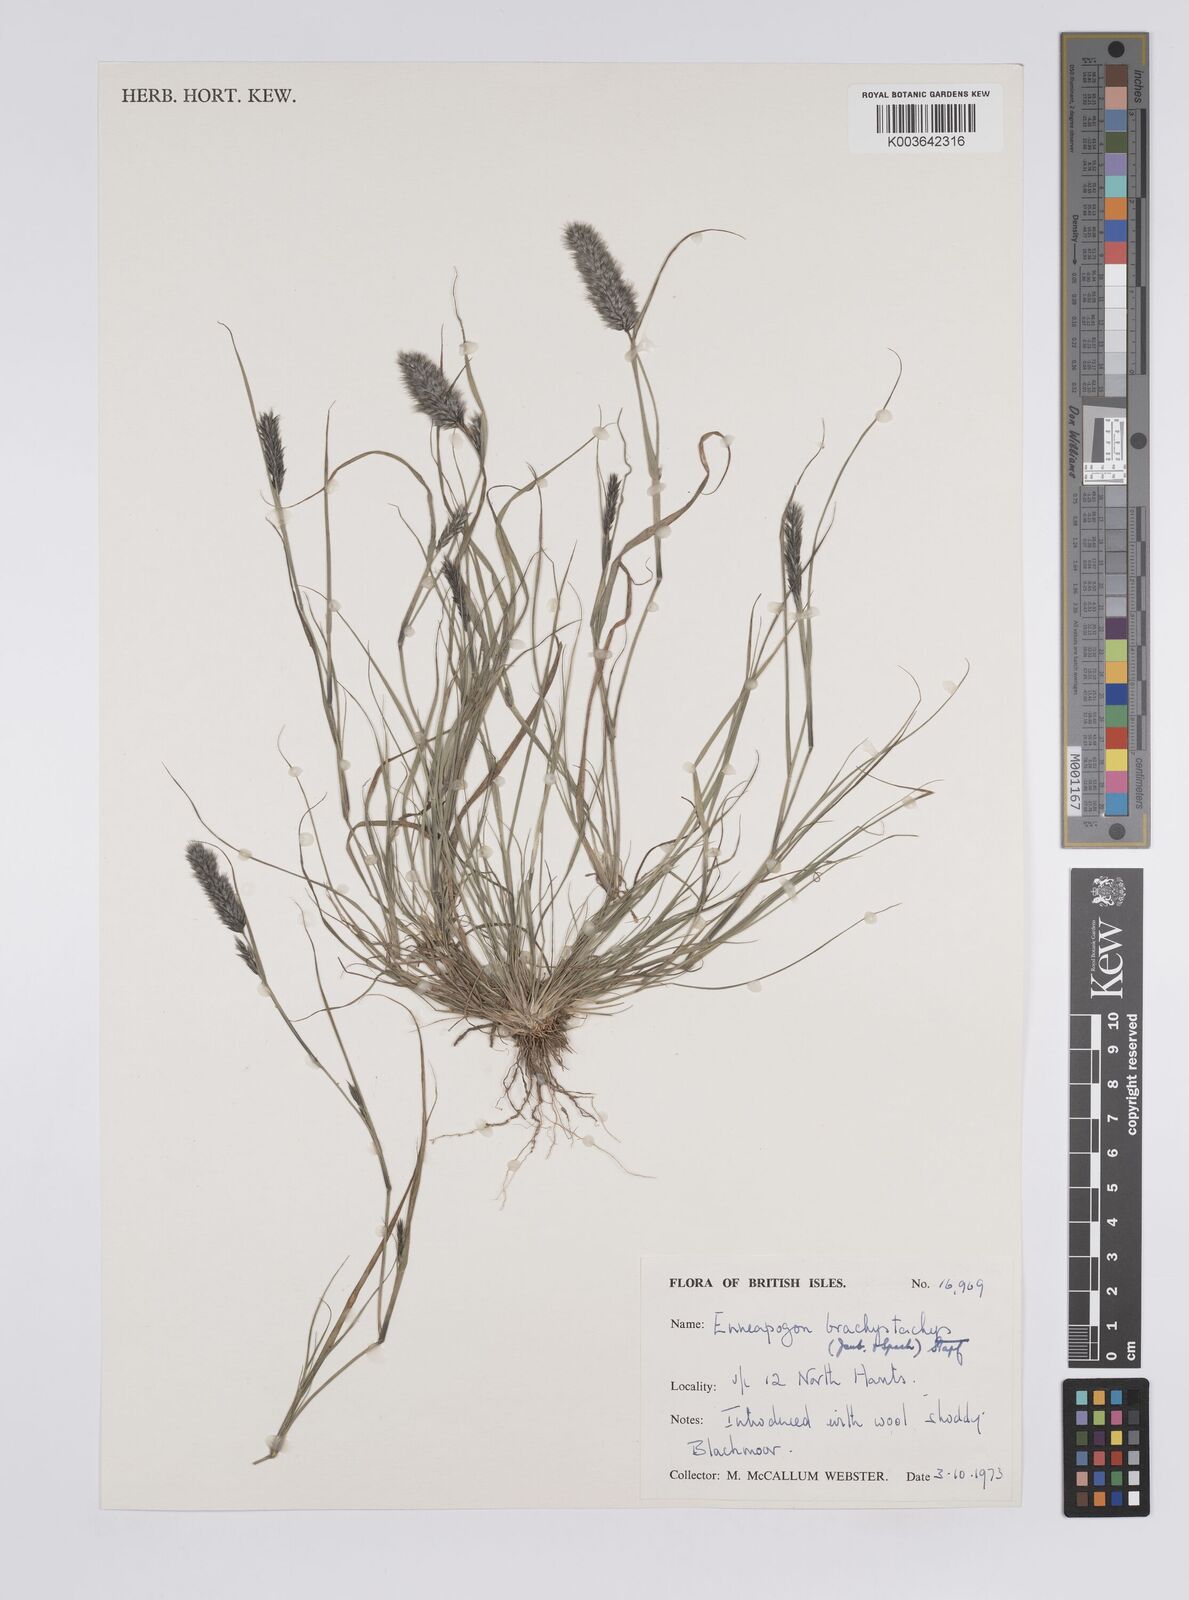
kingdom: Plantae
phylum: Tracheophyta
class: Liliopsida
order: Poales
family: Poaceae
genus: Enneapogon
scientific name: Enneapogon desvauxii
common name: Feather pappus grass
